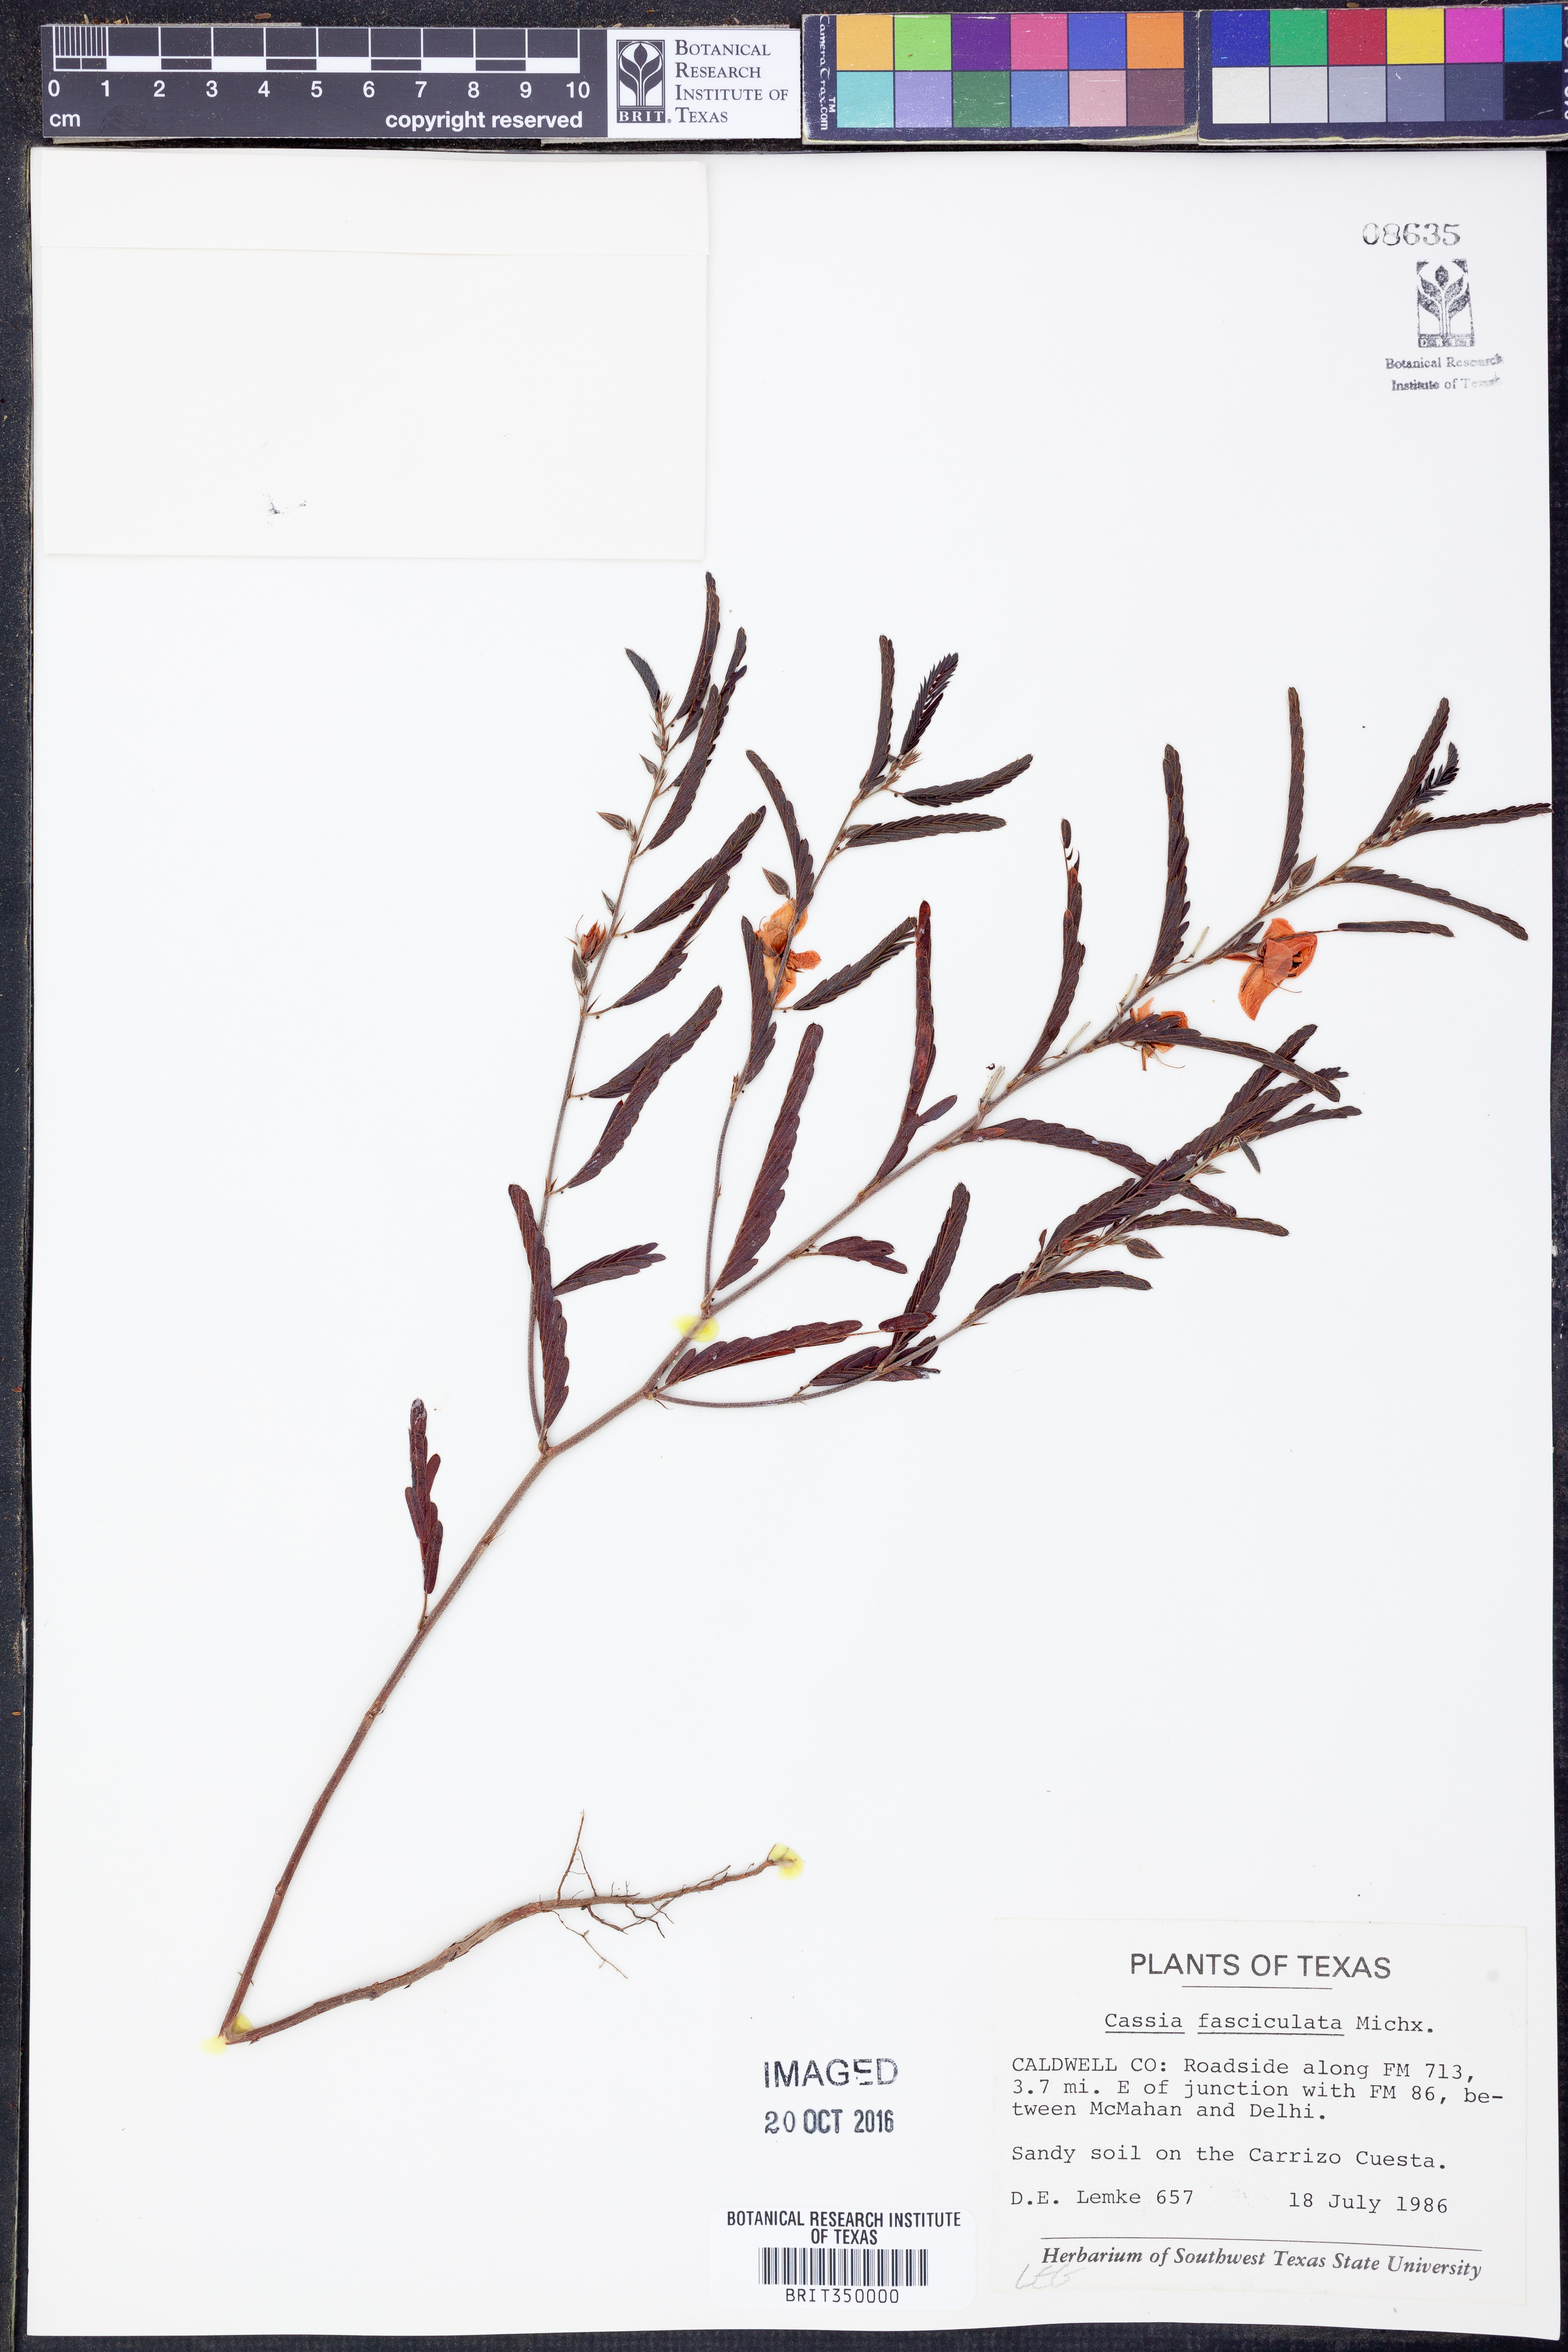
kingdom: Plantae
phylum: Tracheophyta
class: Magnoliopsida
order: Fabales
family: Fabaceae
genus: Chamaecrista
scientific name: Chamaecrista fasciculata
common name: Golden cassia
